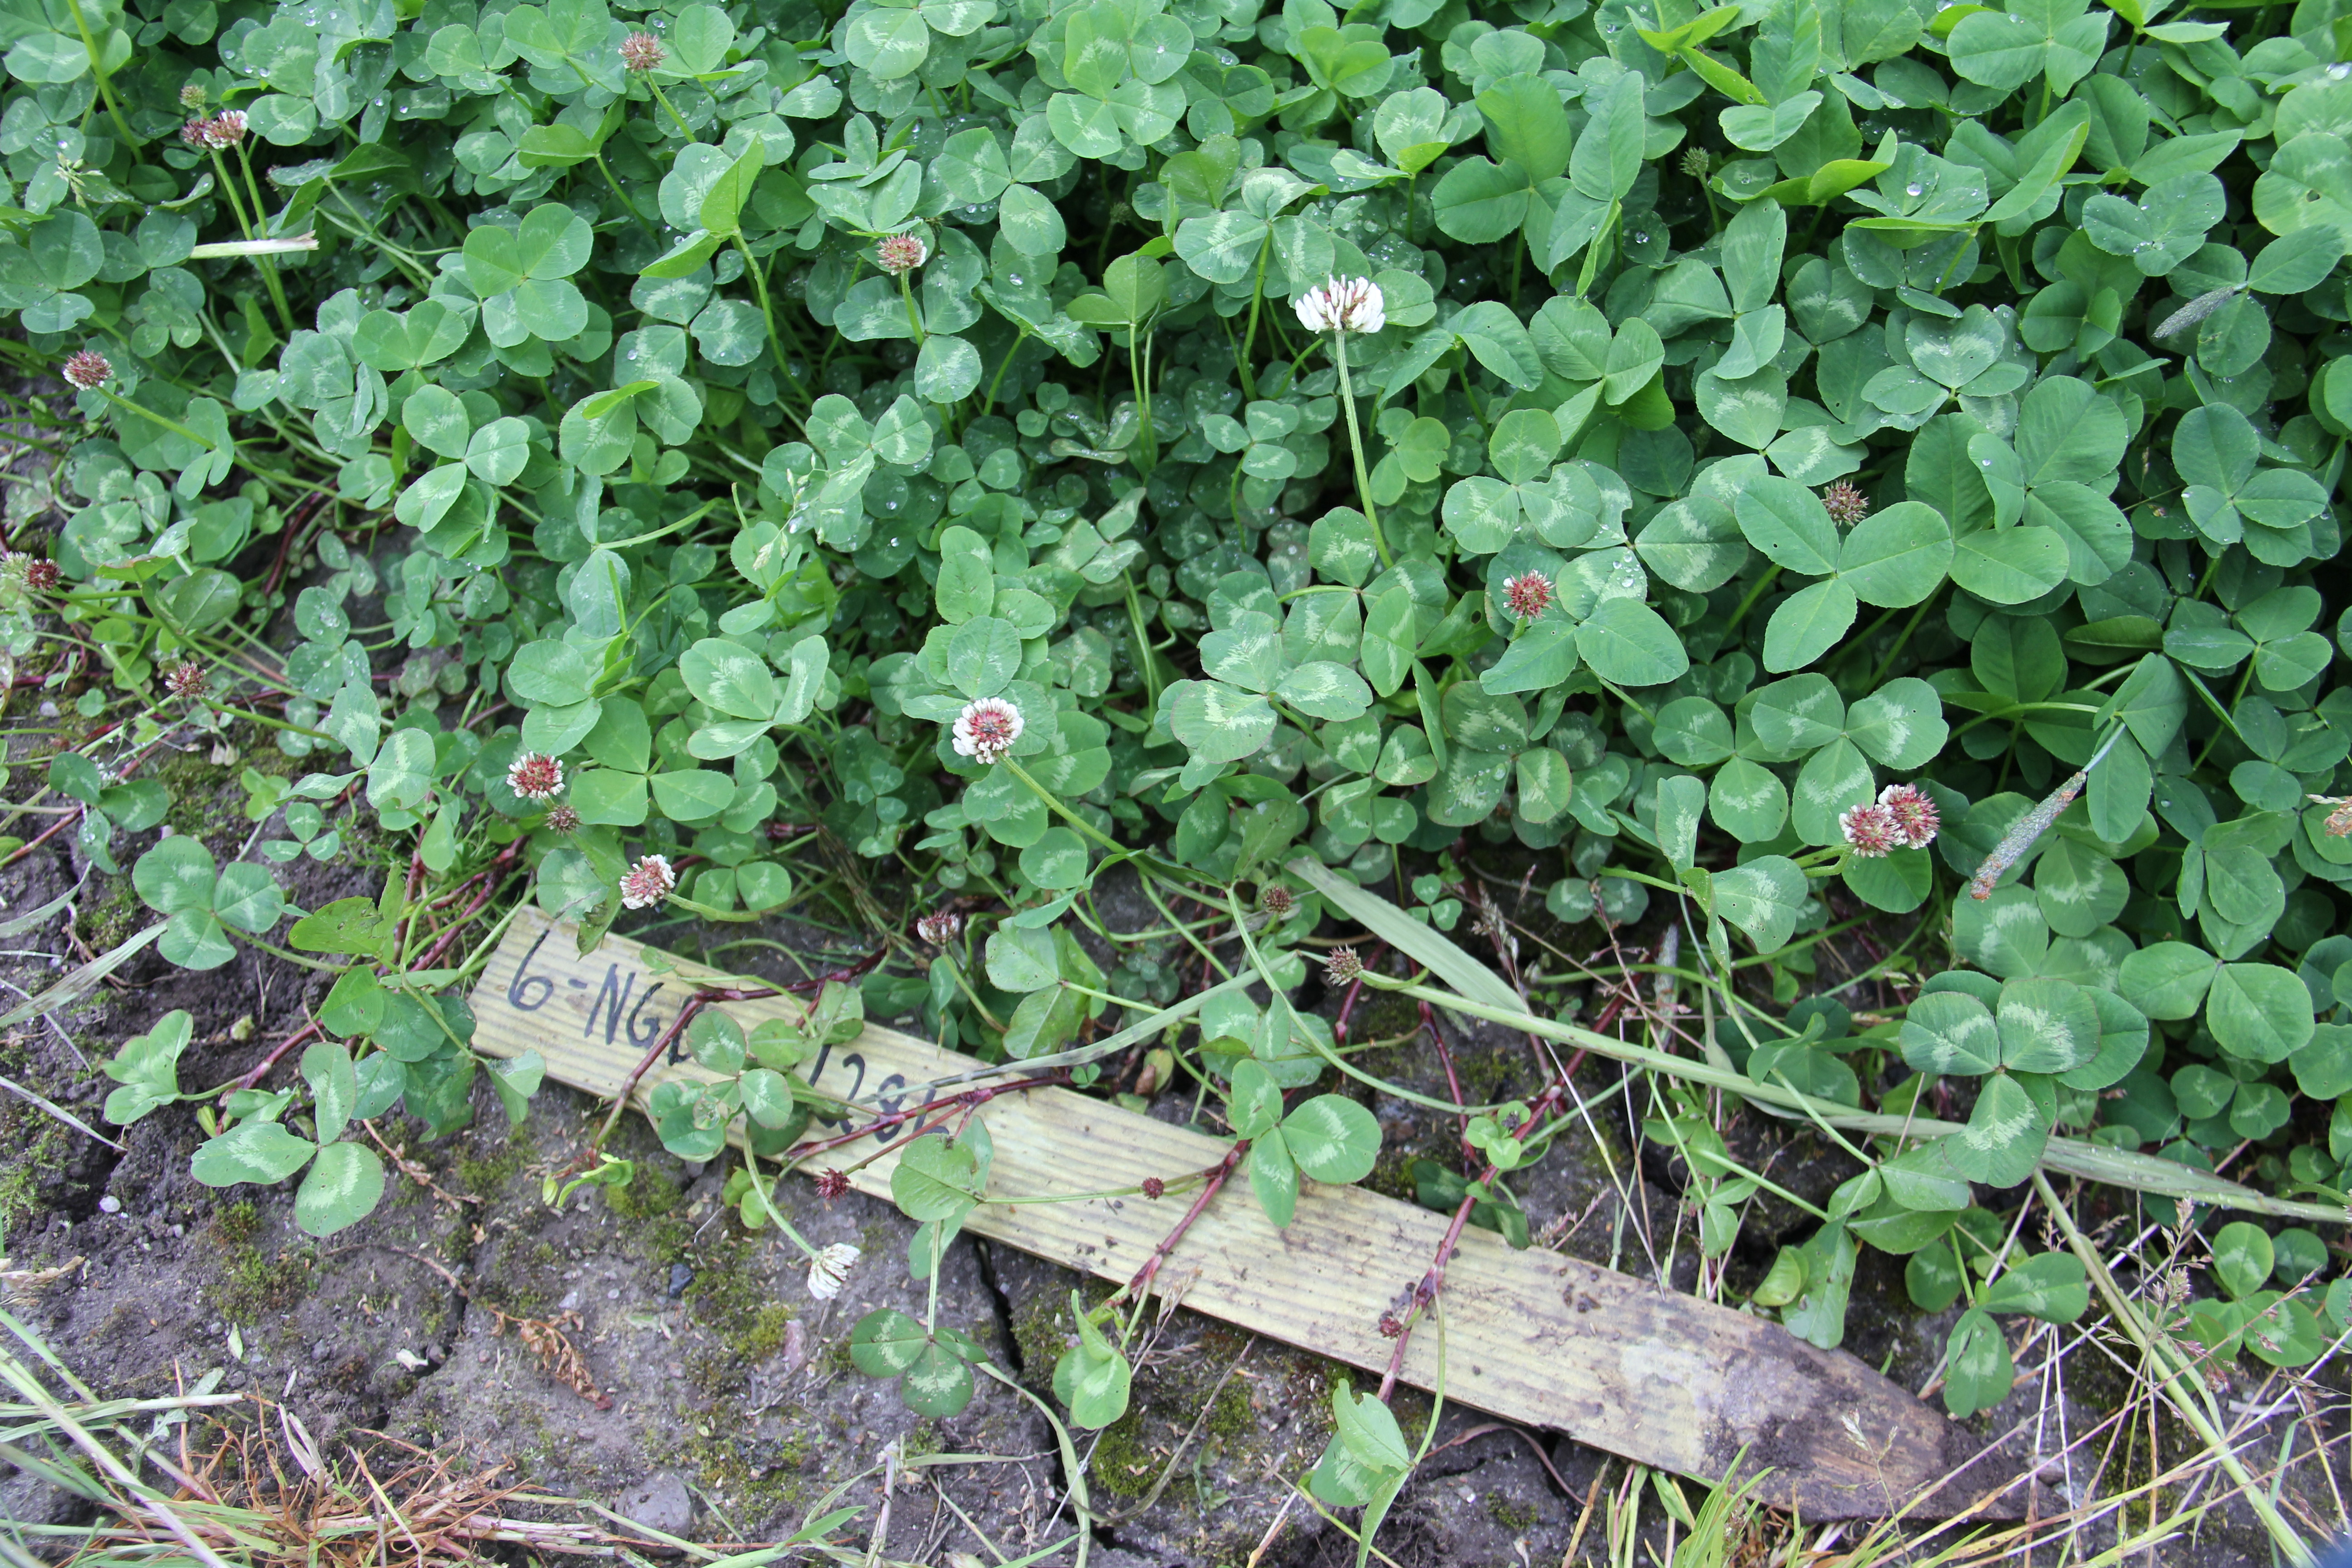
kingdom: Plantae
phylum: Tracheophyta
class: Magnoliopsida
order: Fabales
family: Fabaceae
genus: Trifolium
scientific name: Trifolium repens
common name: White clover
